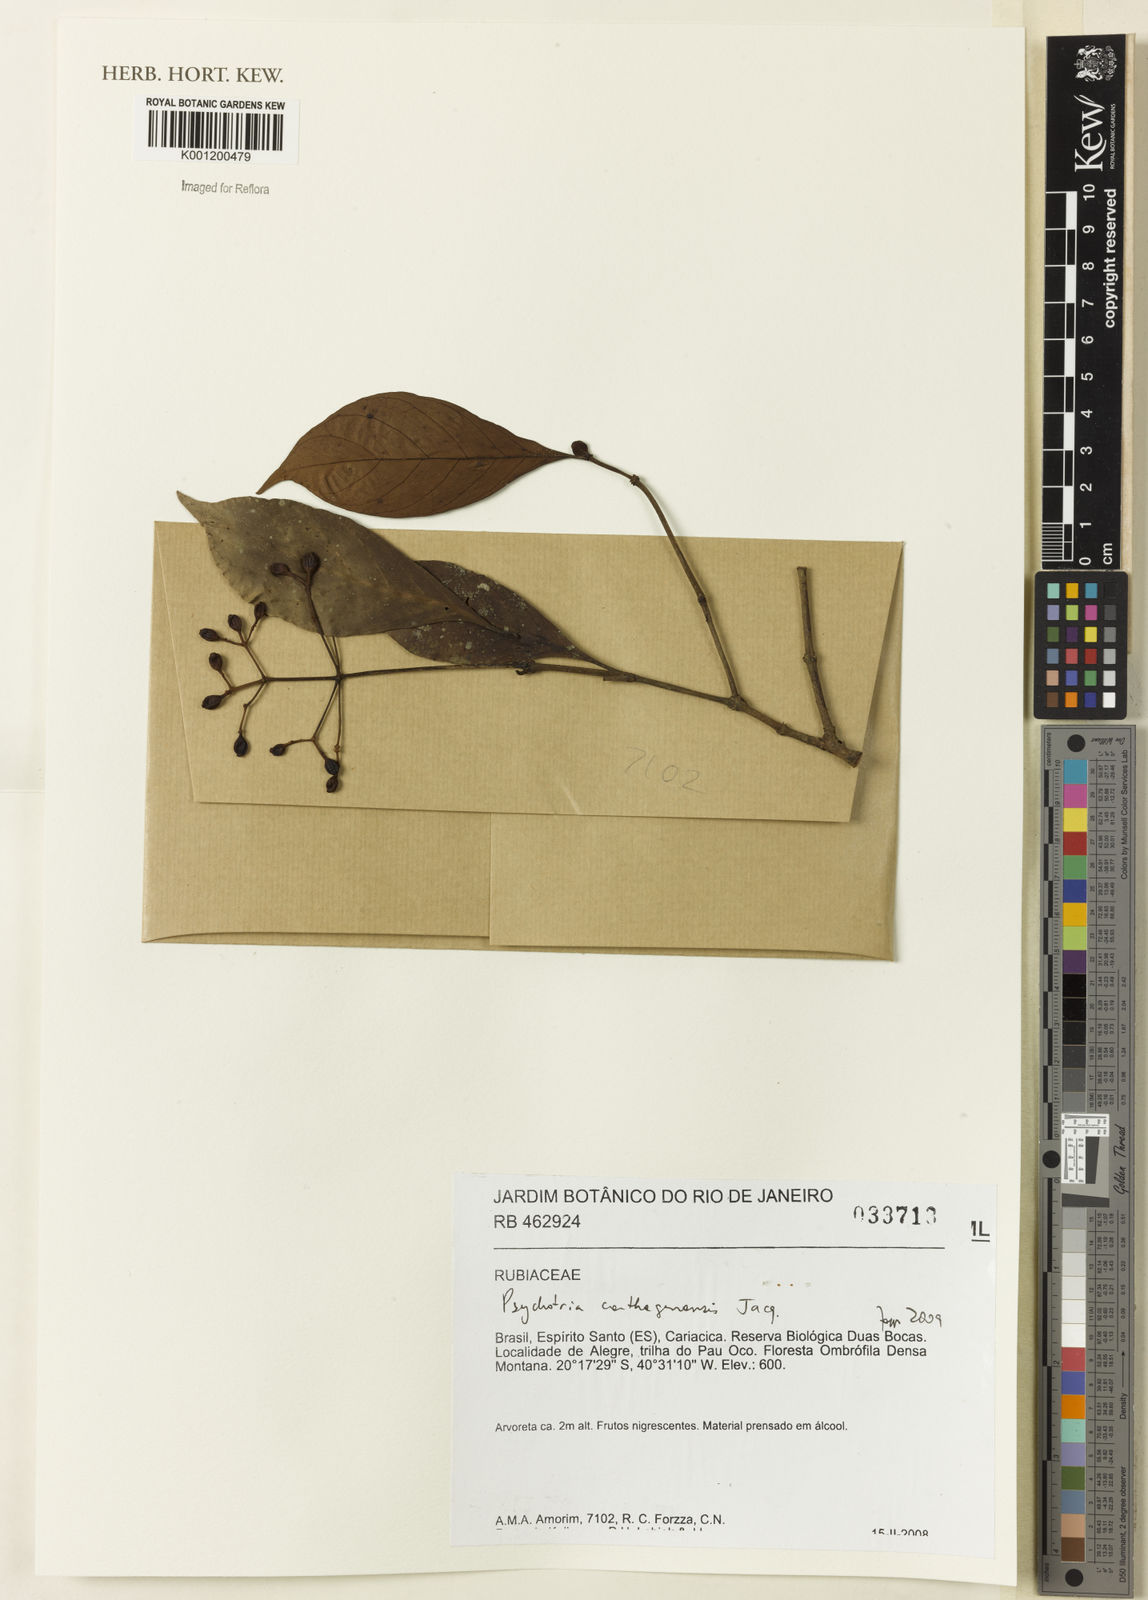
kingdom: Plantae
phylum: Tracheophyta
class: Magnoliopsida
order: Gentianales
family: Rubiaceae
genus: Psychotria
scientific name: Psychotria carthagenensis
